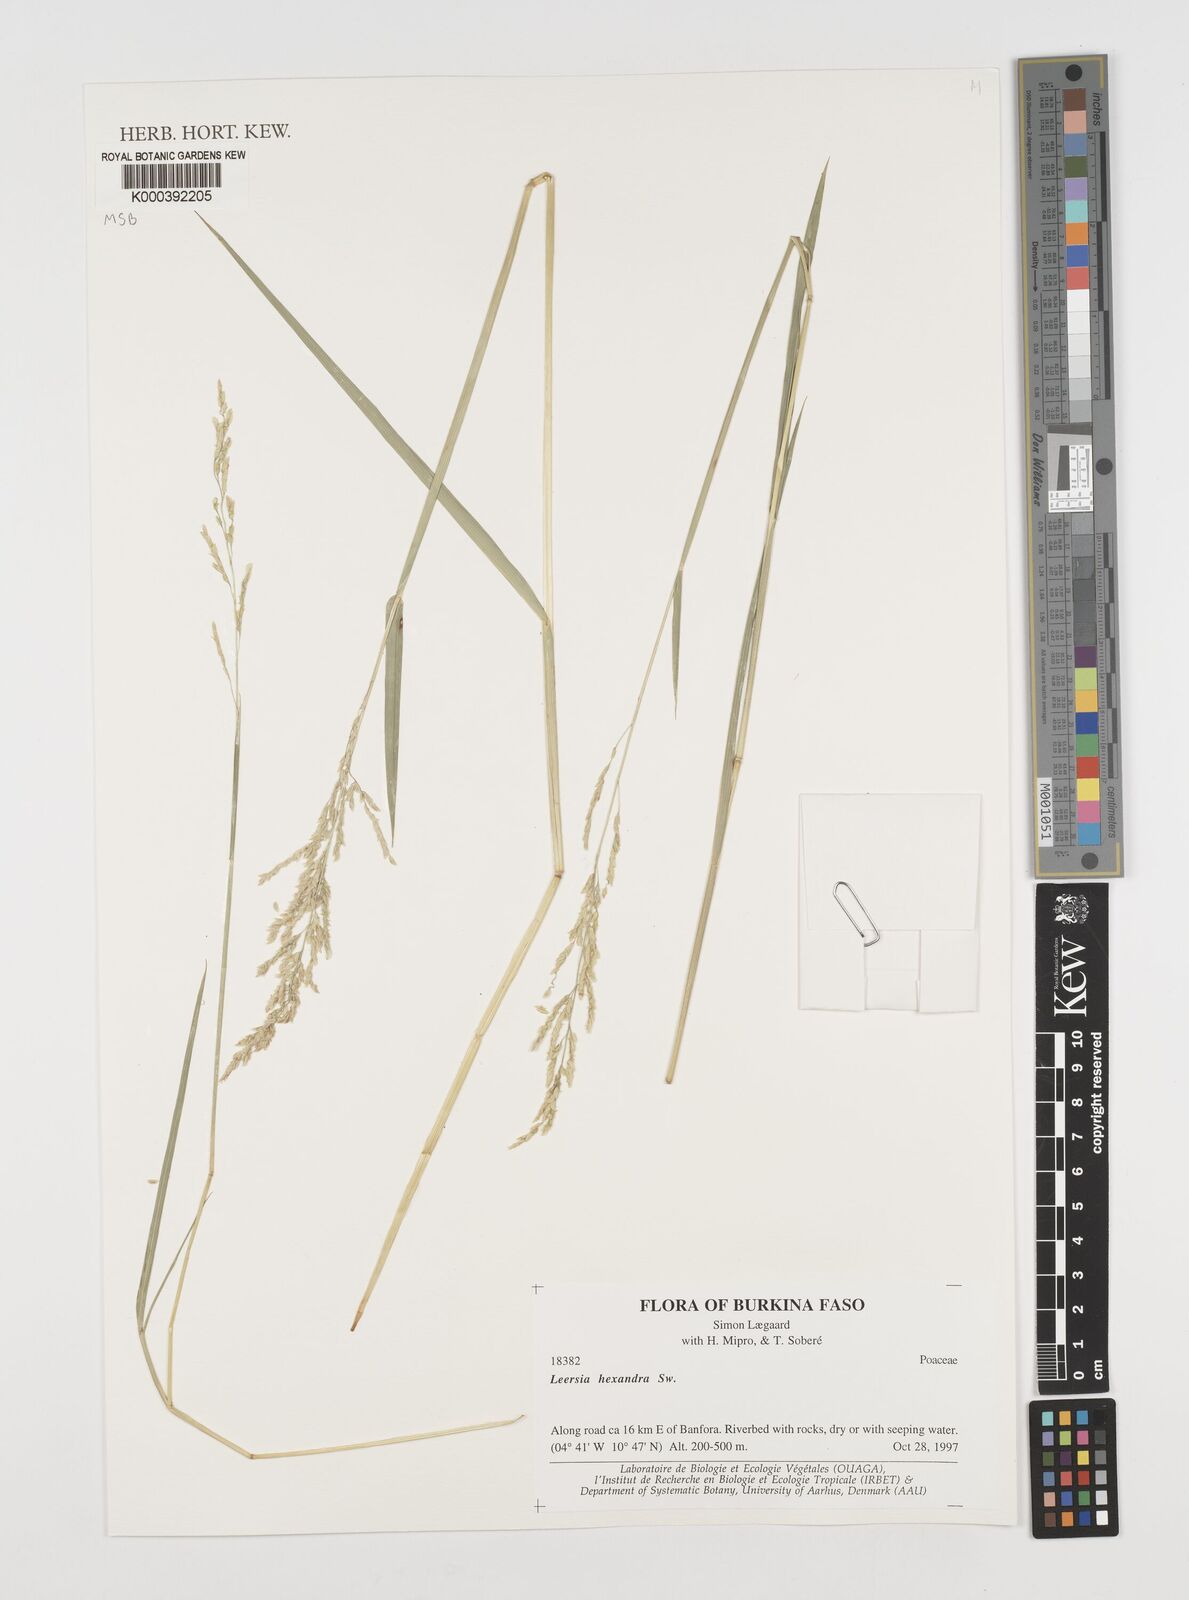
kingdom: Plantae
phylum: Tracheophyta
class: Liliopsida
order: Poales
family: Poaceae
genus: Leersia
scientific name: Leersia hexandra
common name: Southern cut grass
